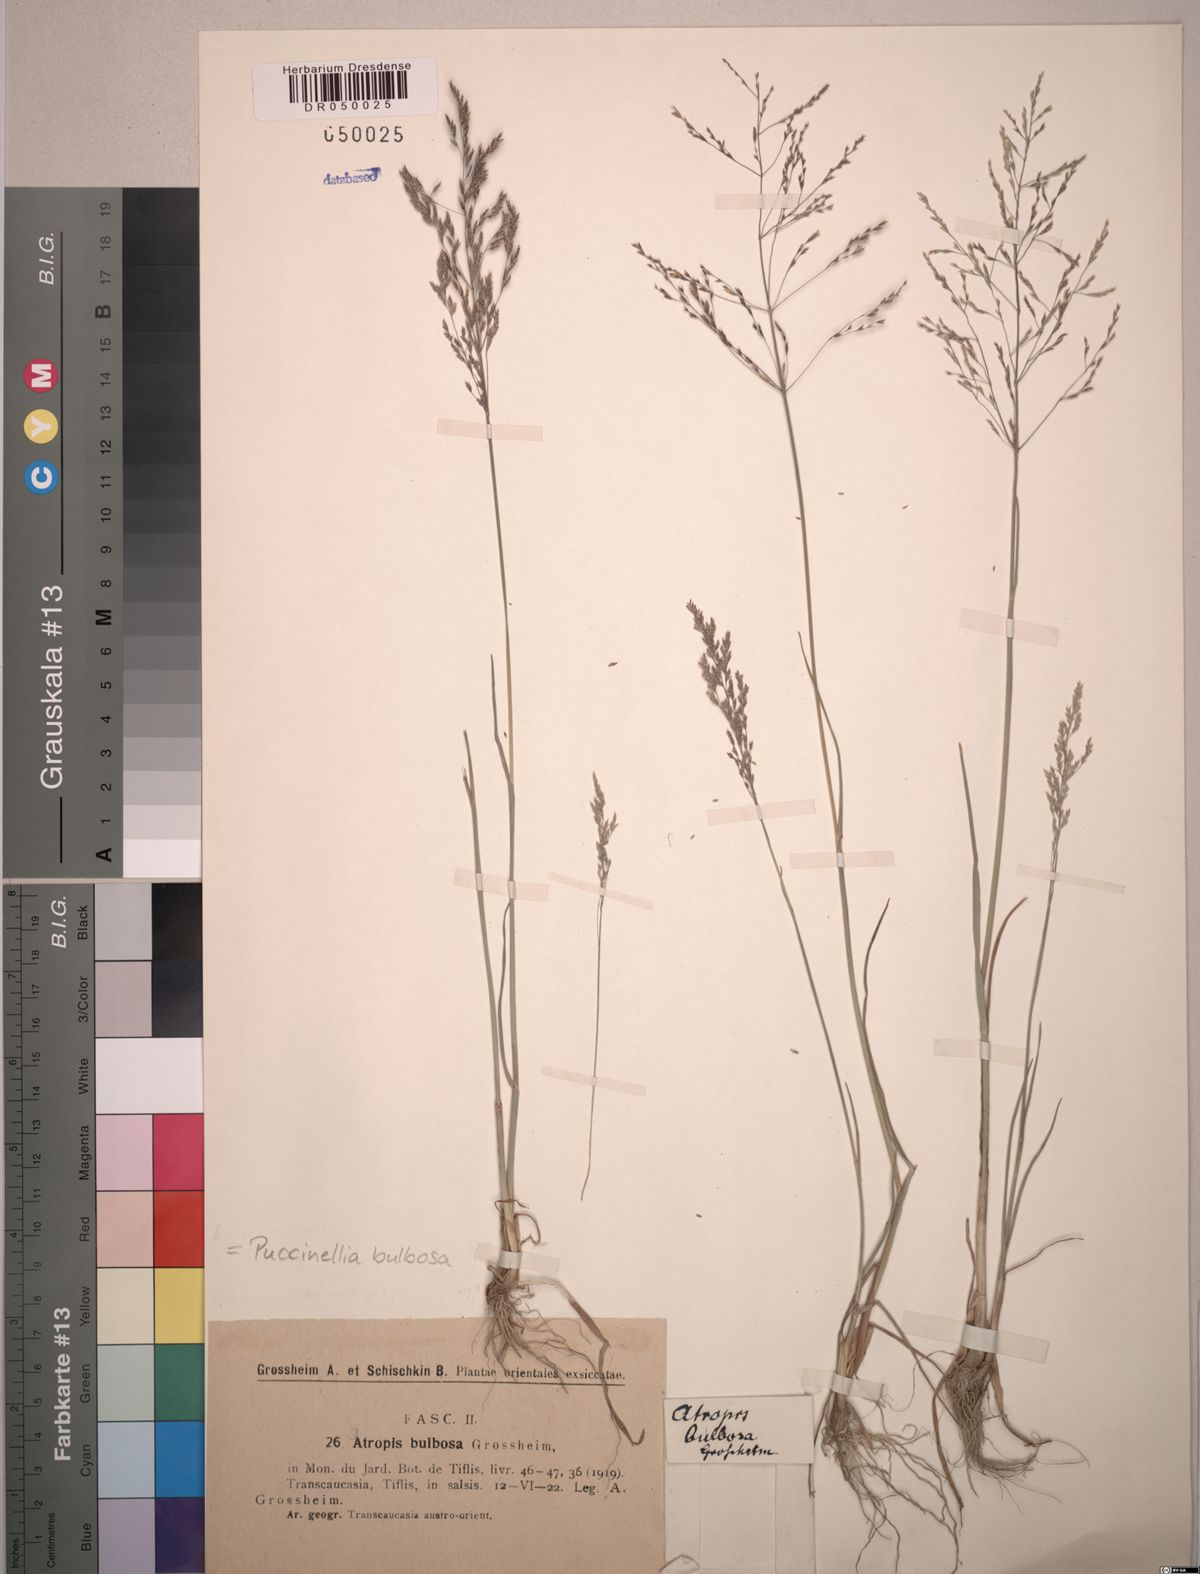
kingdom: Plantae
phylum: Tracheophyta
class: Liliopsida
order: Poales
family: Poaceae
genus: Puccinellia
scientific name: Puccinellia bulbosa
